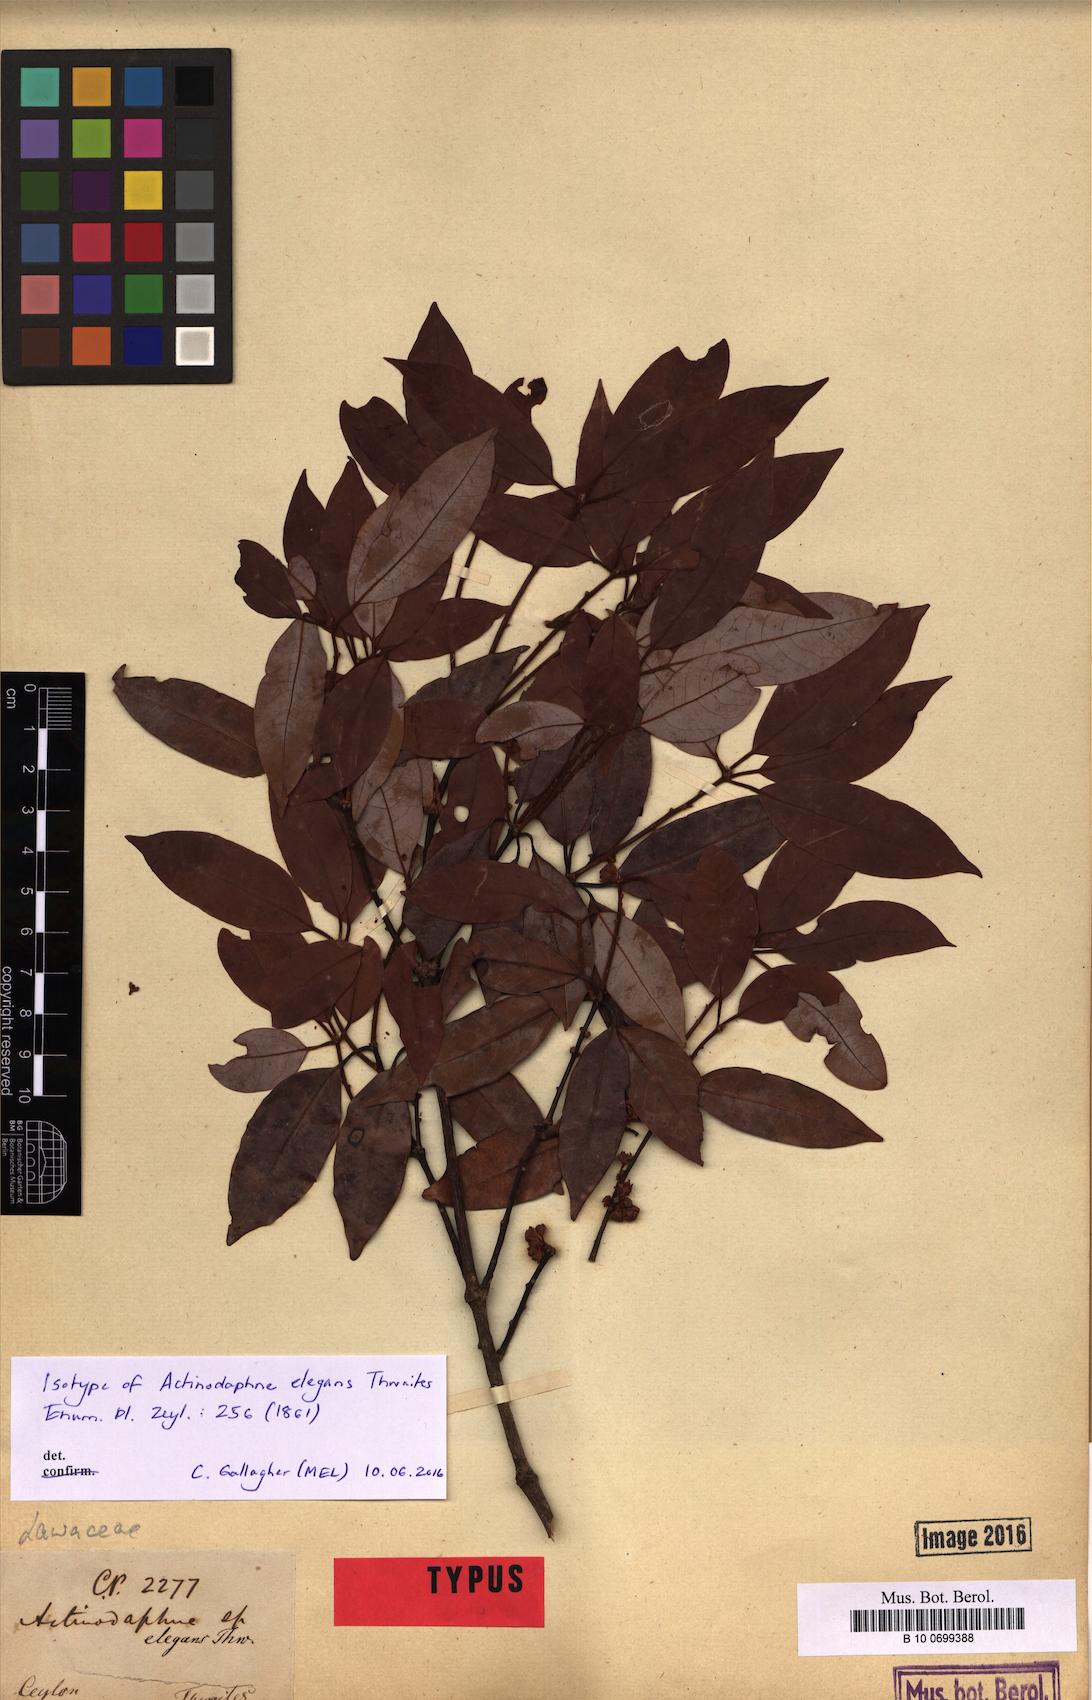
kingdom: Plantae
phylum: Tracheophyta
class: Magnoliopsida
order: Laurales
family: Lauraceae
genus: Actinodaphne
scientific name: Actinodaphne elegans
